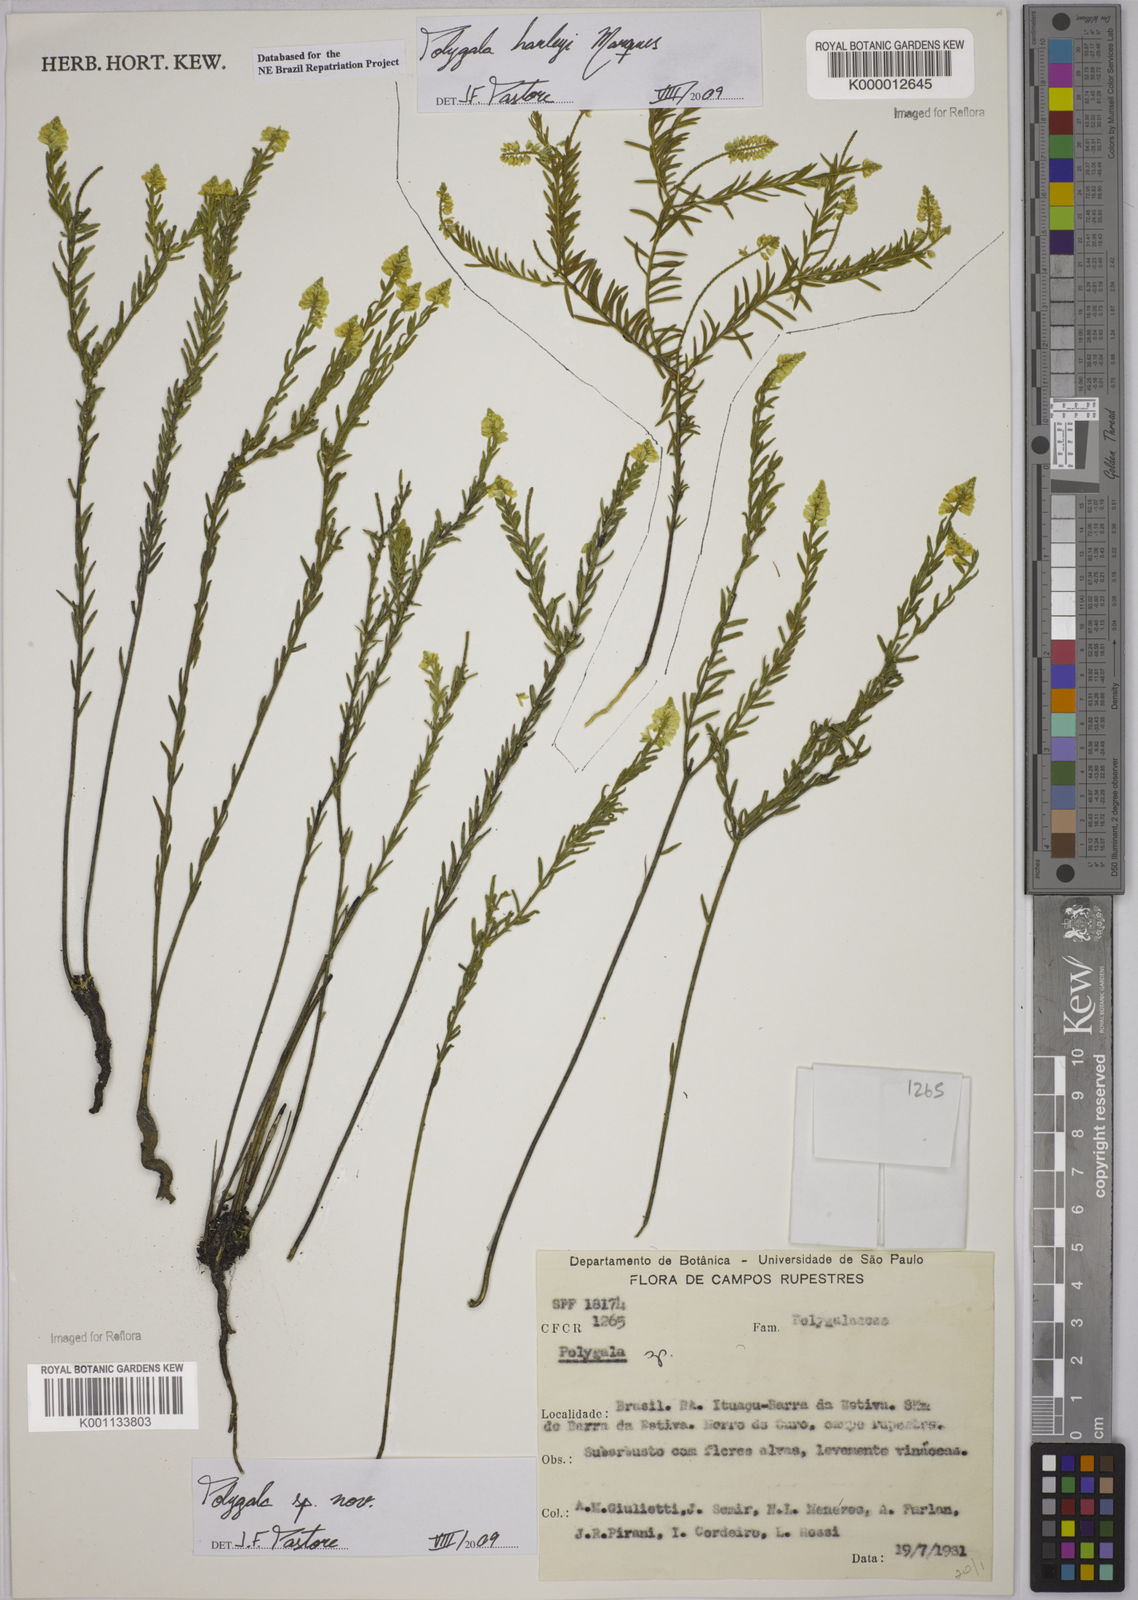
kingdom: Plantae
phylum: Tracheophyta
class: Magnoliopsida
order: Fabales
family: Polygalaceae
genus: Polygala
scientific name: Polygala
